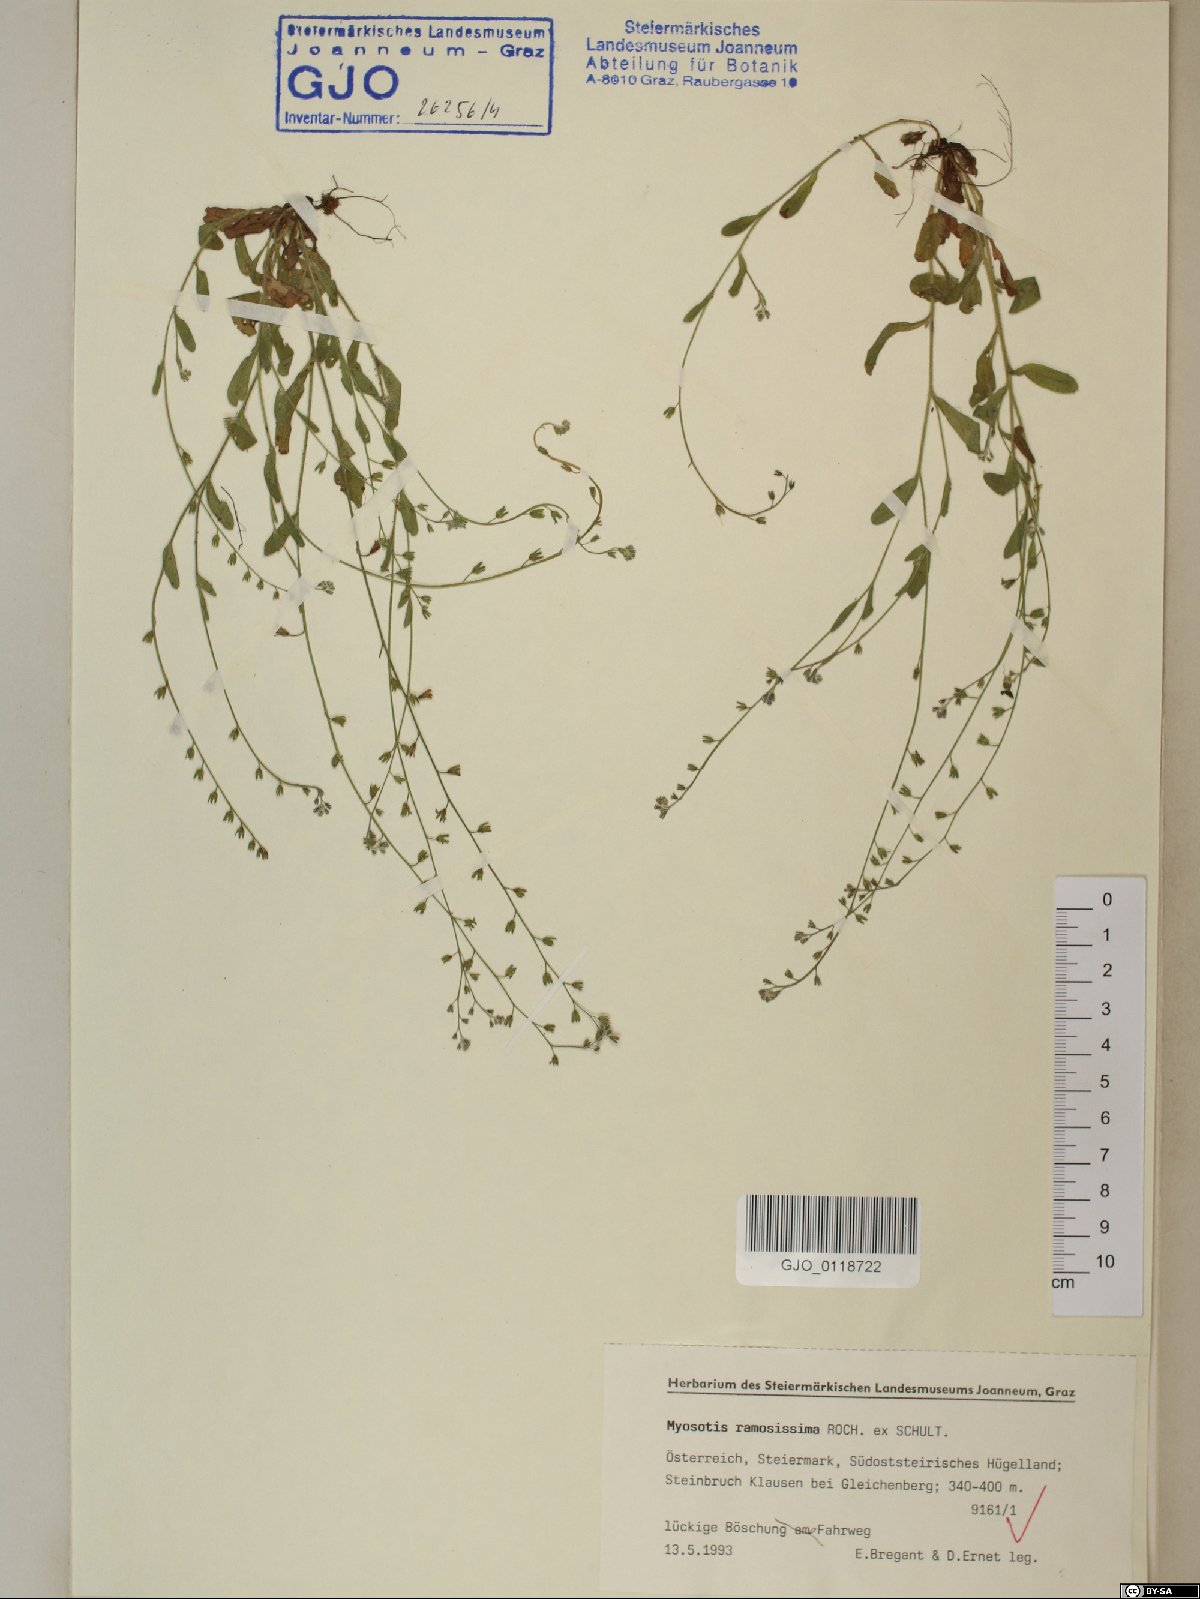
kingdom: Plantae
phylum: Tracheophyta
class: Magnoliopsida
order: Boraginales
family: Boraginaceae
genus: Myosotis
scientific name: Myosotis ramosissima
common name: Early forget-me-not
